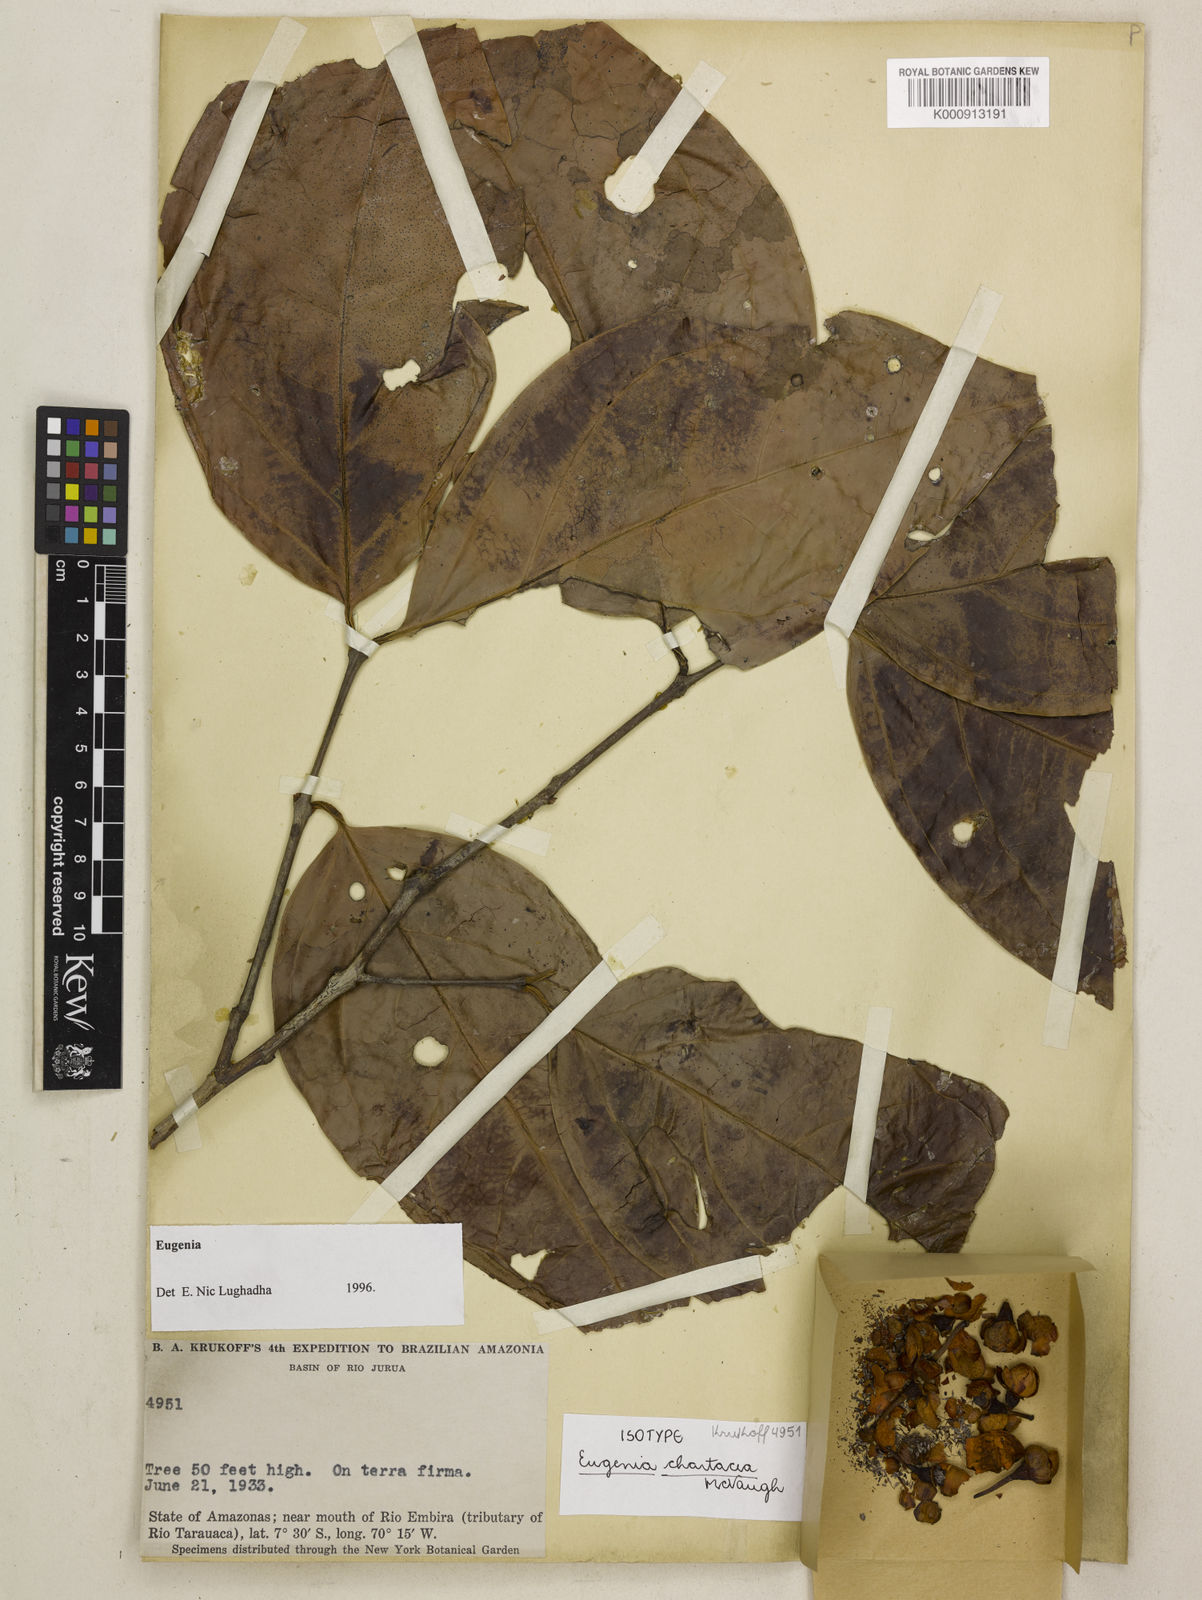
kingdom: Plantae
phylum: Tracheophyta
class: Magnoliopsida
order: Myrtales
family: Myrtaceae
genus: Eugenia
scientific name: Eugenia chartacea
